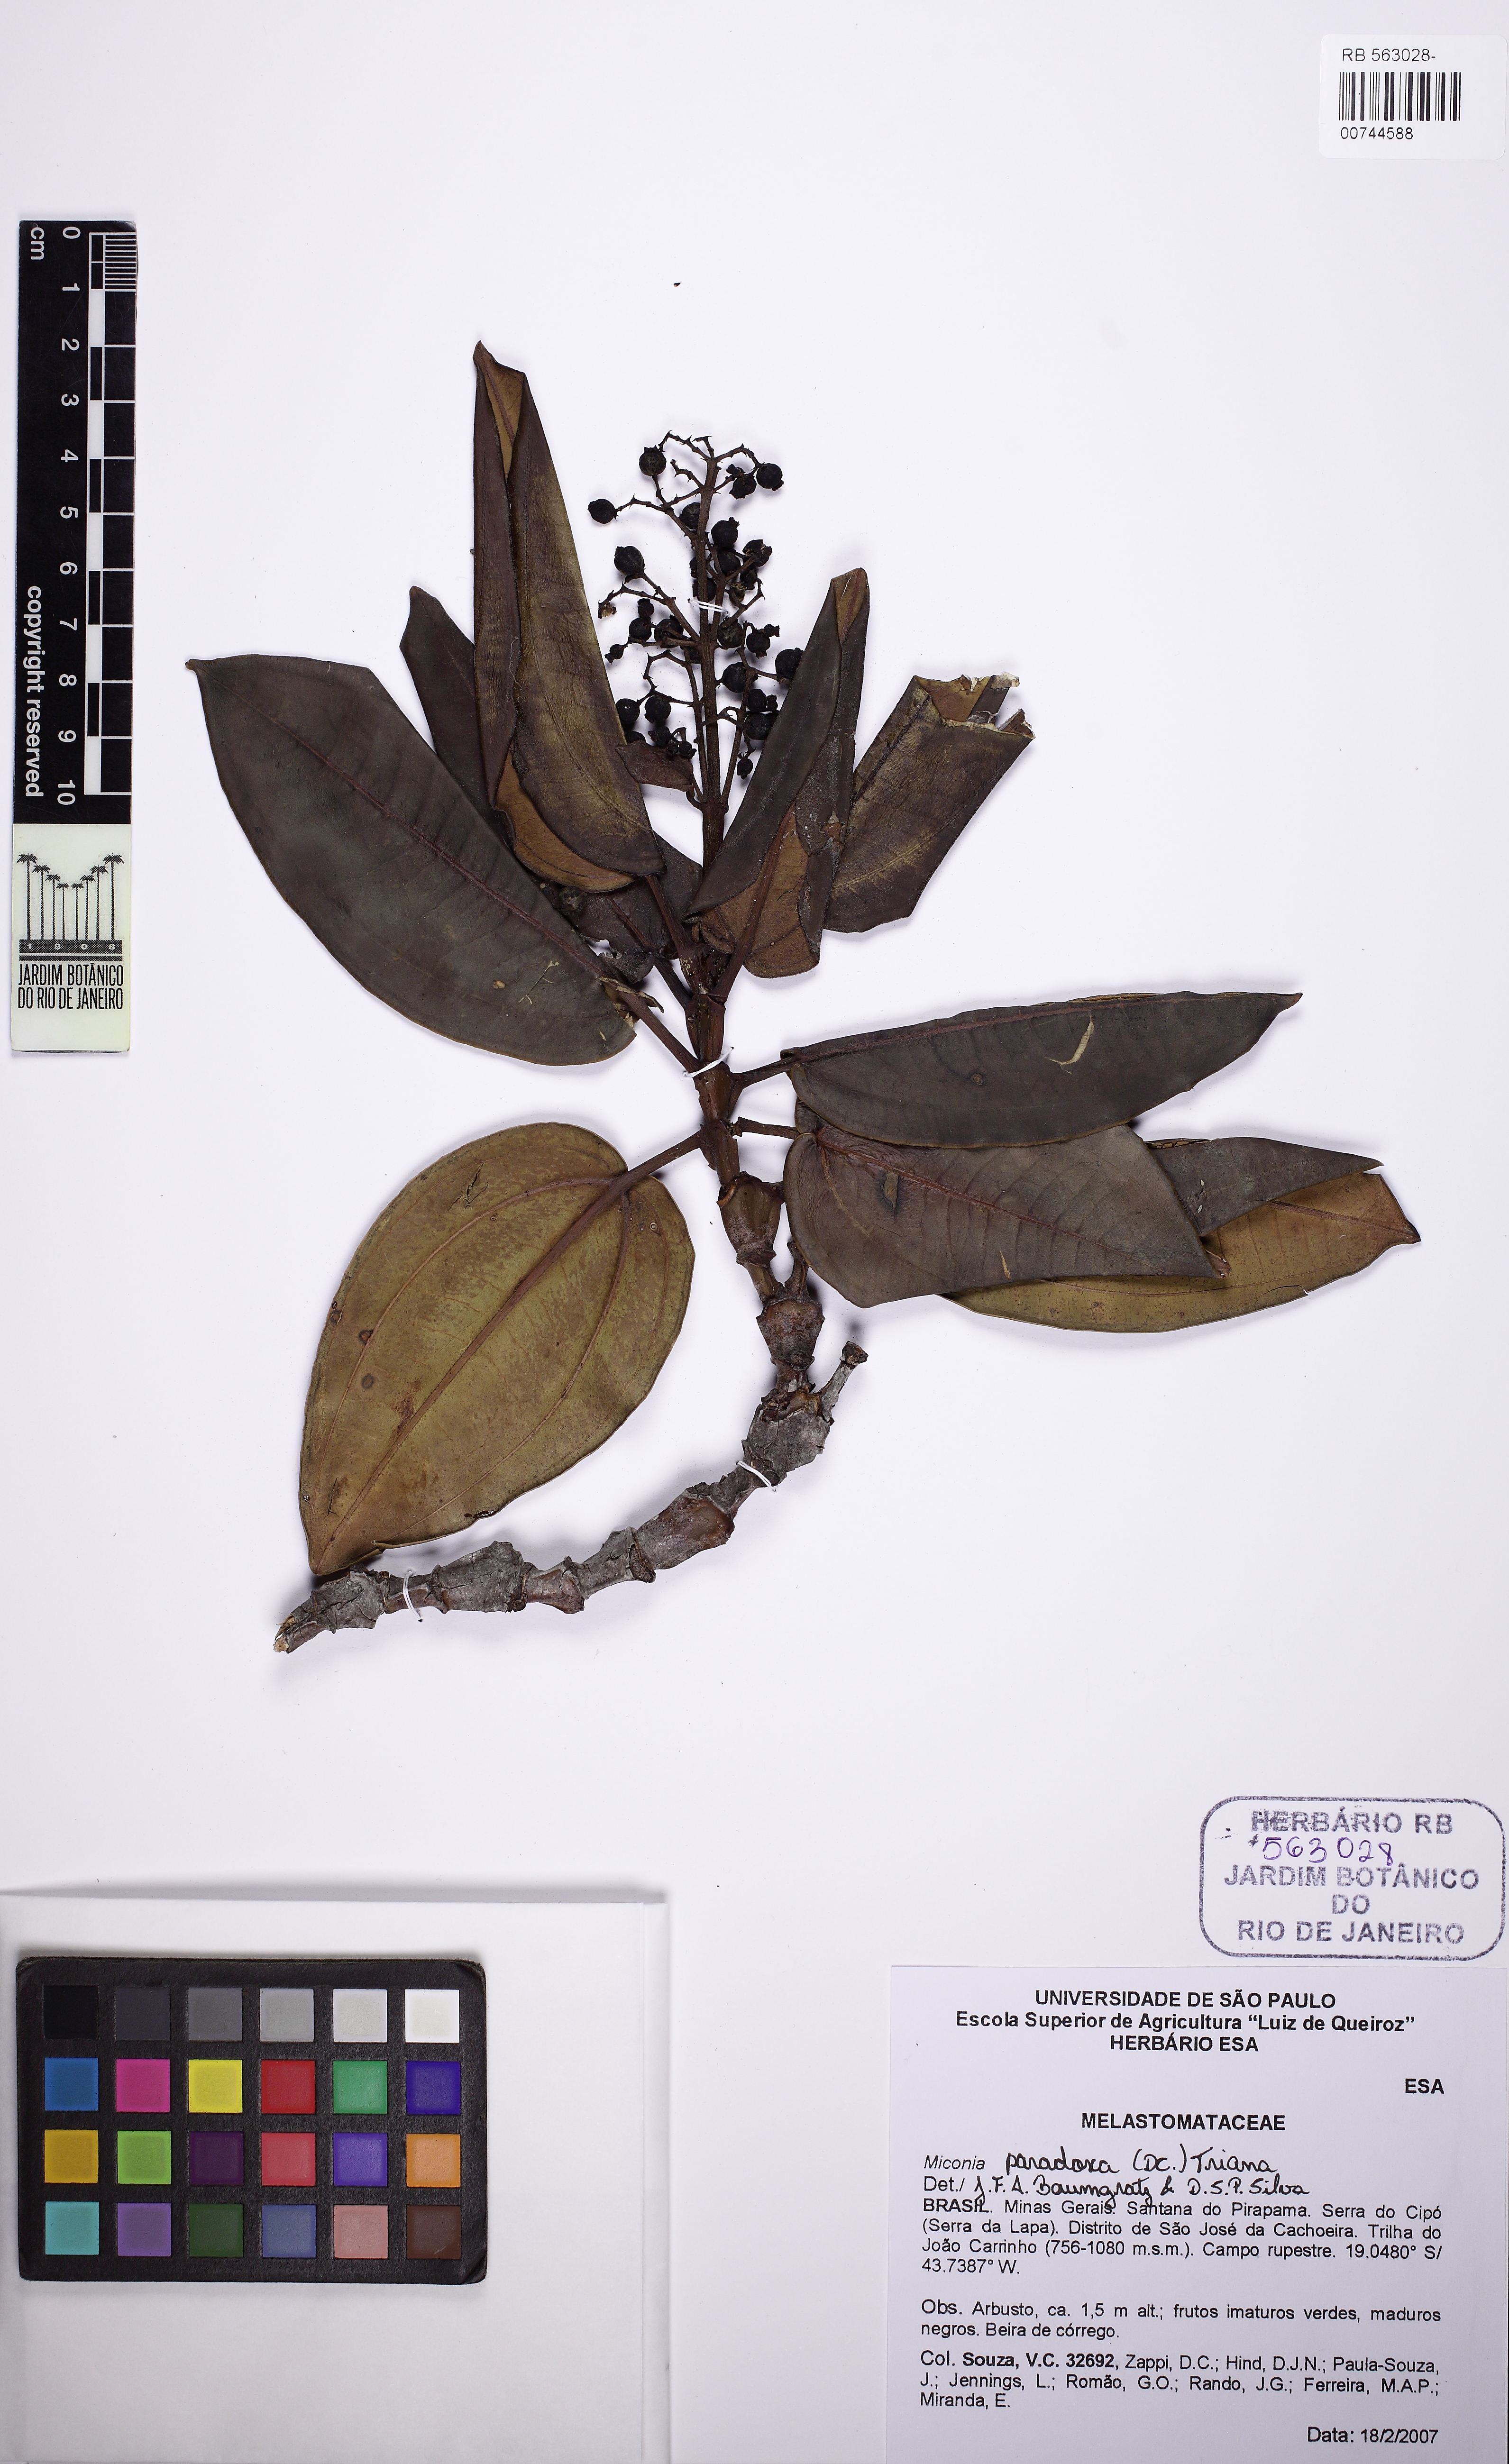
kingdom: Plantae
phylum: Tracheophyta
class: Magnoliopsida
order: Myrtales
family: Melastomataceae
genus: Miconia
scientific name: Miconia paradoxa
